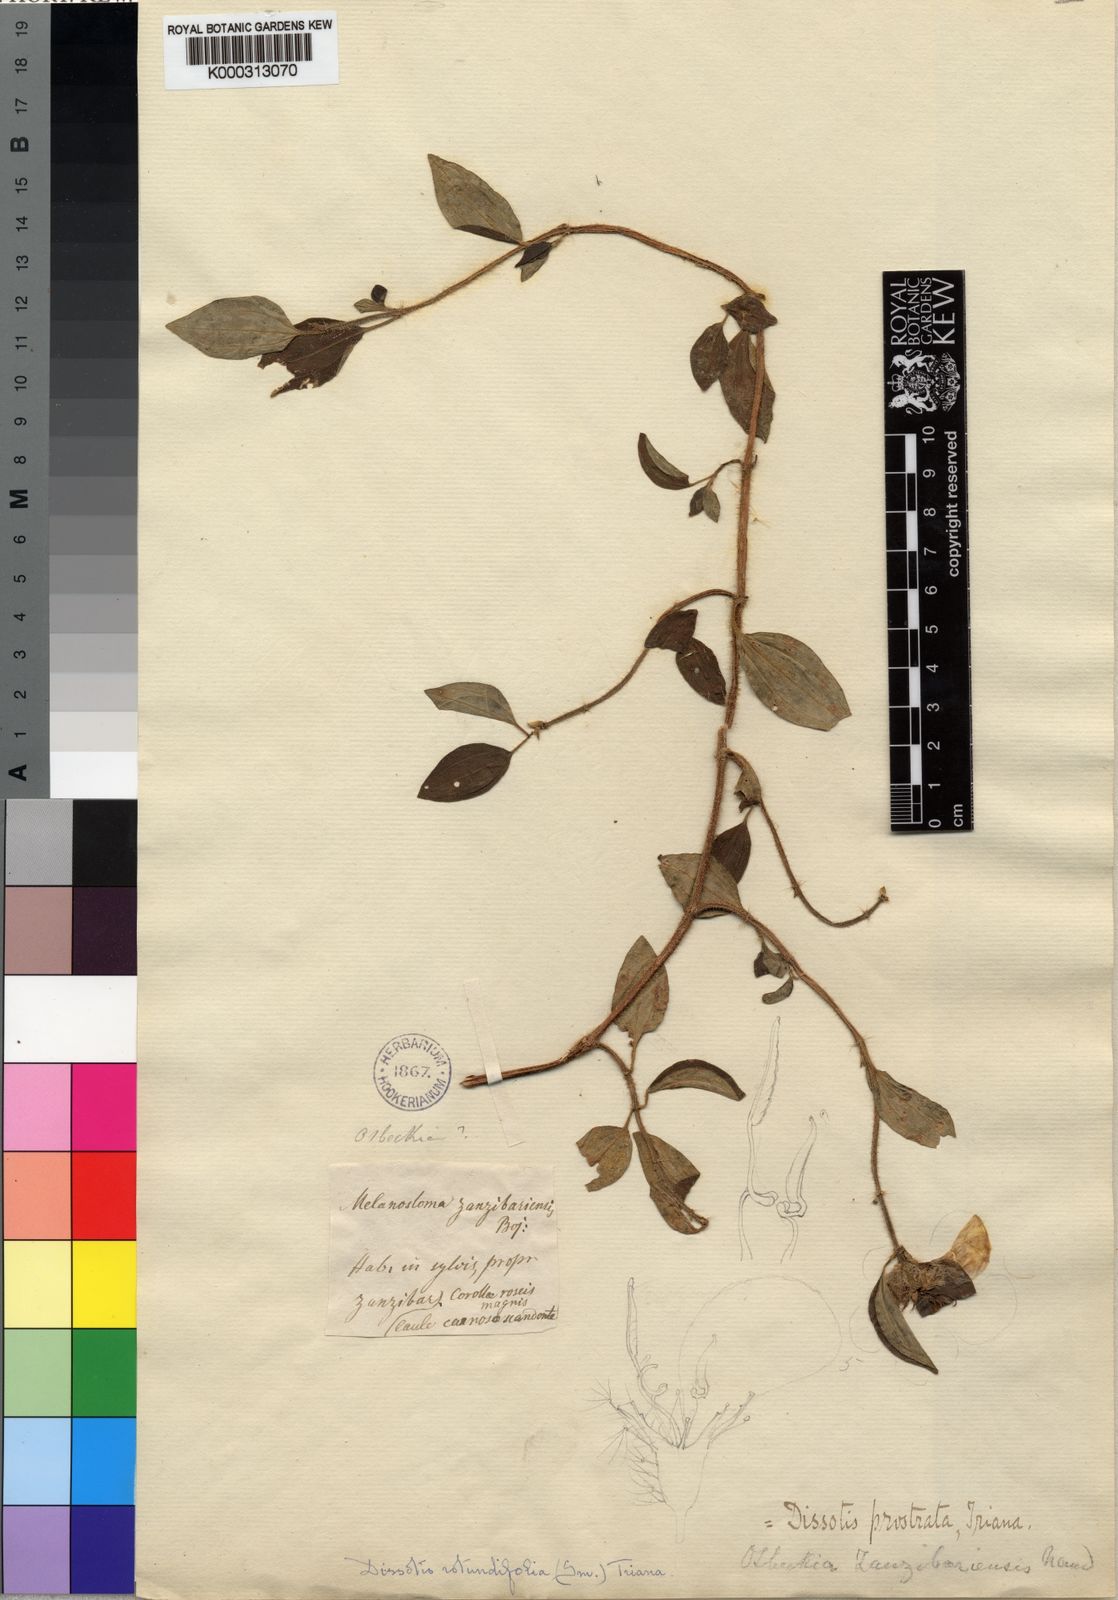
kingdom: Plantae
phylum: Tracheophyta
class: Magnoliopsida
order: Myrtales
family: Melastomataceae
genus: Heterotis
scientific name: Heterotis
